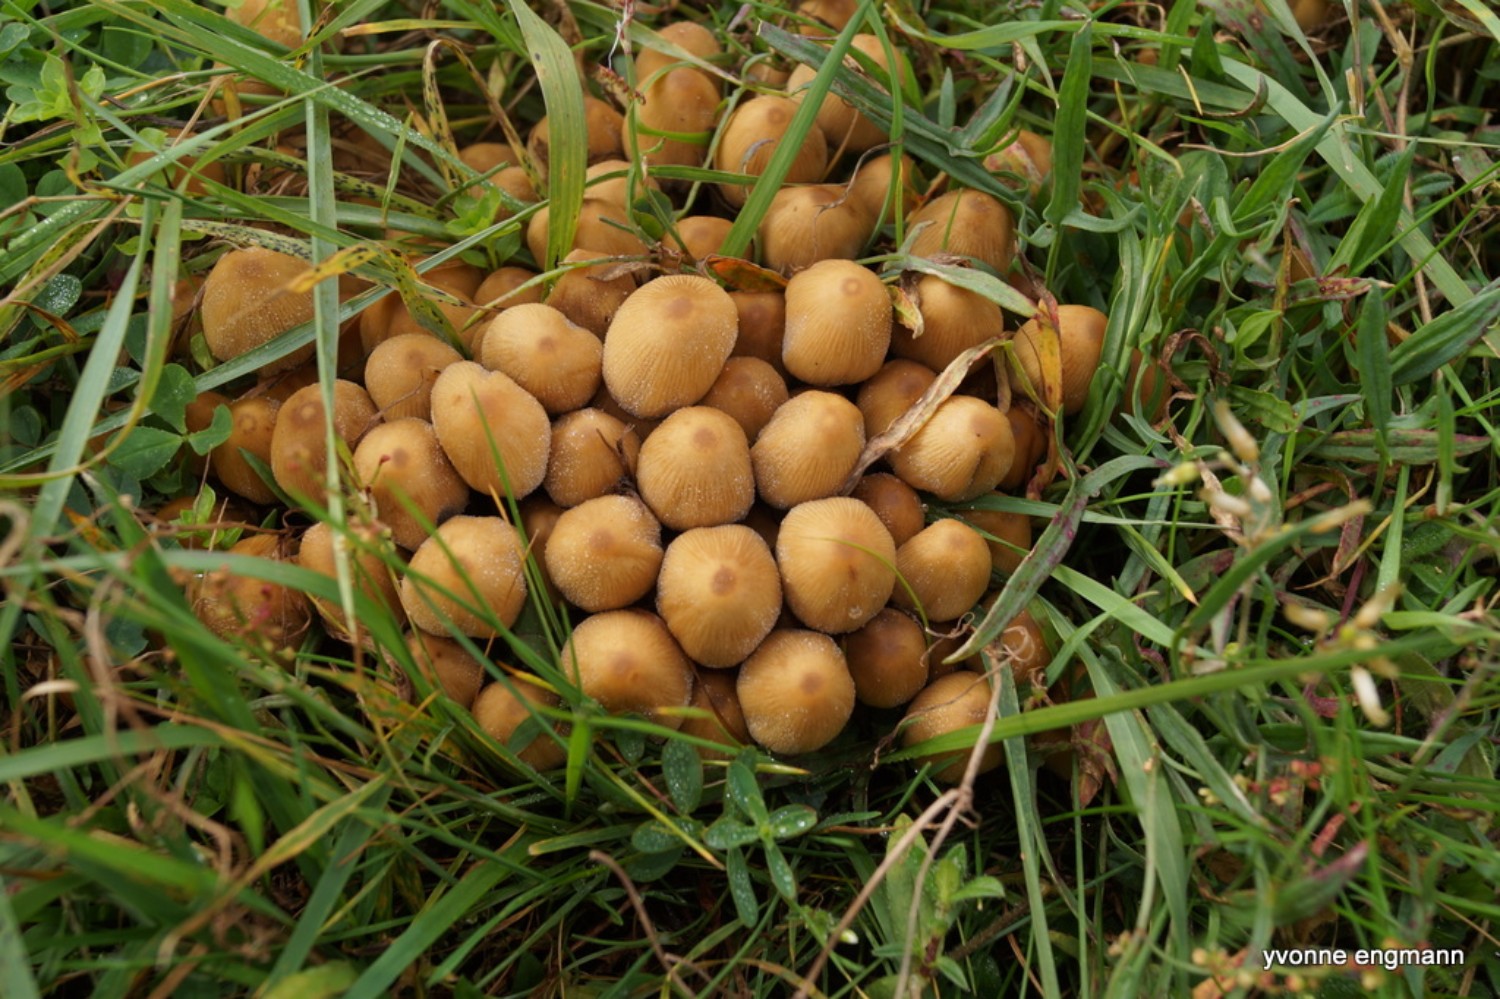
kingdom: Fungi
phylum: Basidiomycota
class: Agaricomycetes
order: Agaricales
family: Psathyrellaceae
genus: Coprinellus
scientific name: Coprinellus micaceus
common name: glimmer-blækhat
